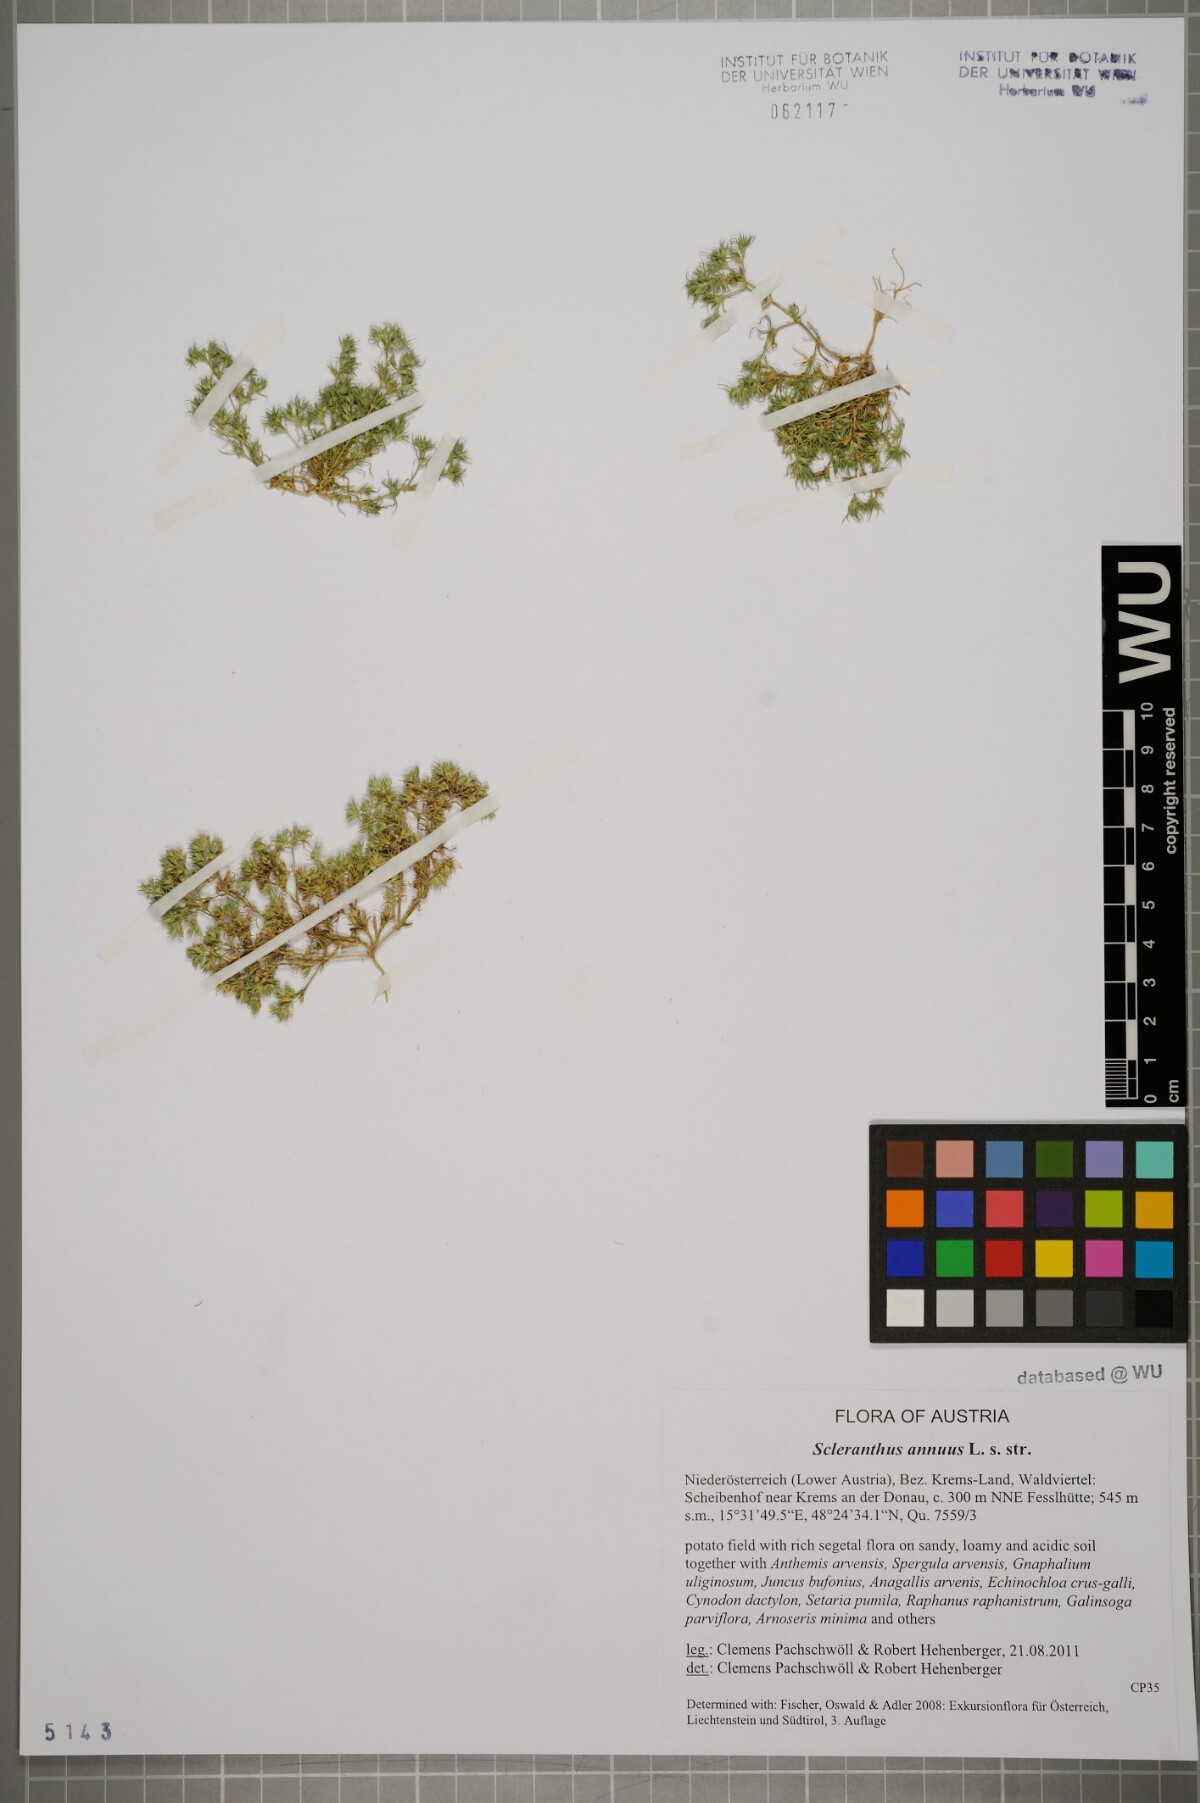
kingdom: Plantae
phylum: Tracheophyta
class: Magnoliopsida
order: Caryophyllales
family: Caryophyllaceae
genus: Scleranthus
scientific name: Scleranthus annuus
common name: Annual knawel
